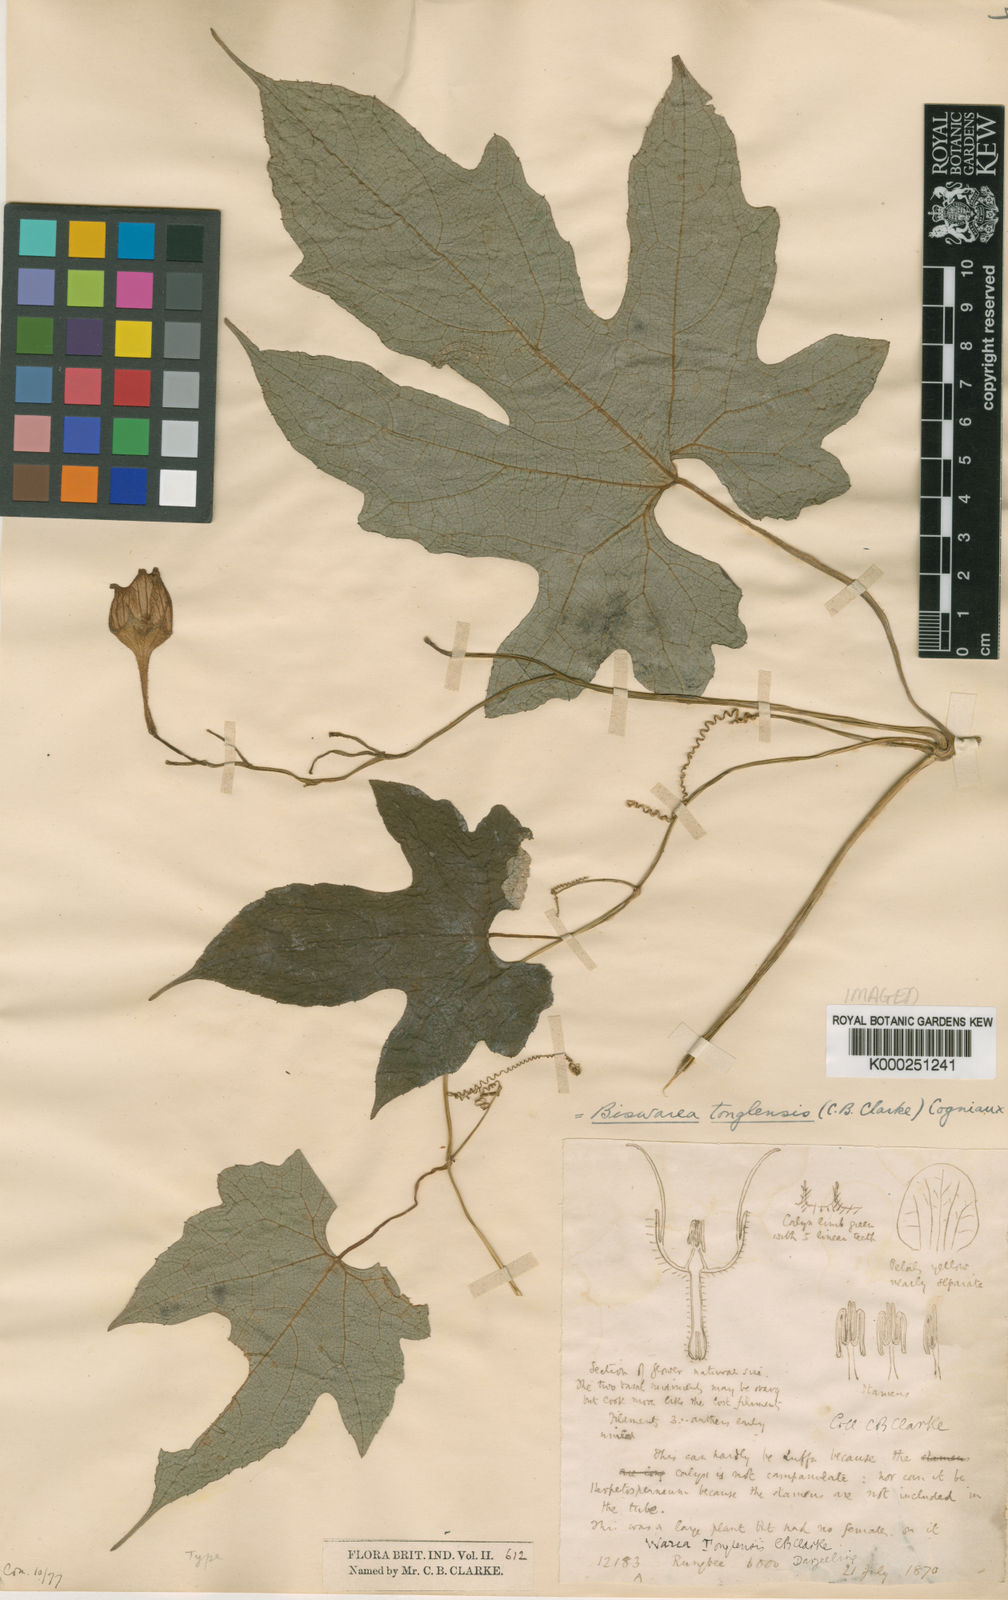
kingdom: Plantae
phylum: Tracheophyta
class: Magnoliopsida
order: Cucurbitales
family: Cucurbitaceae
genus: Herpetospermum
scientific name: Herpetospermum tonglense
